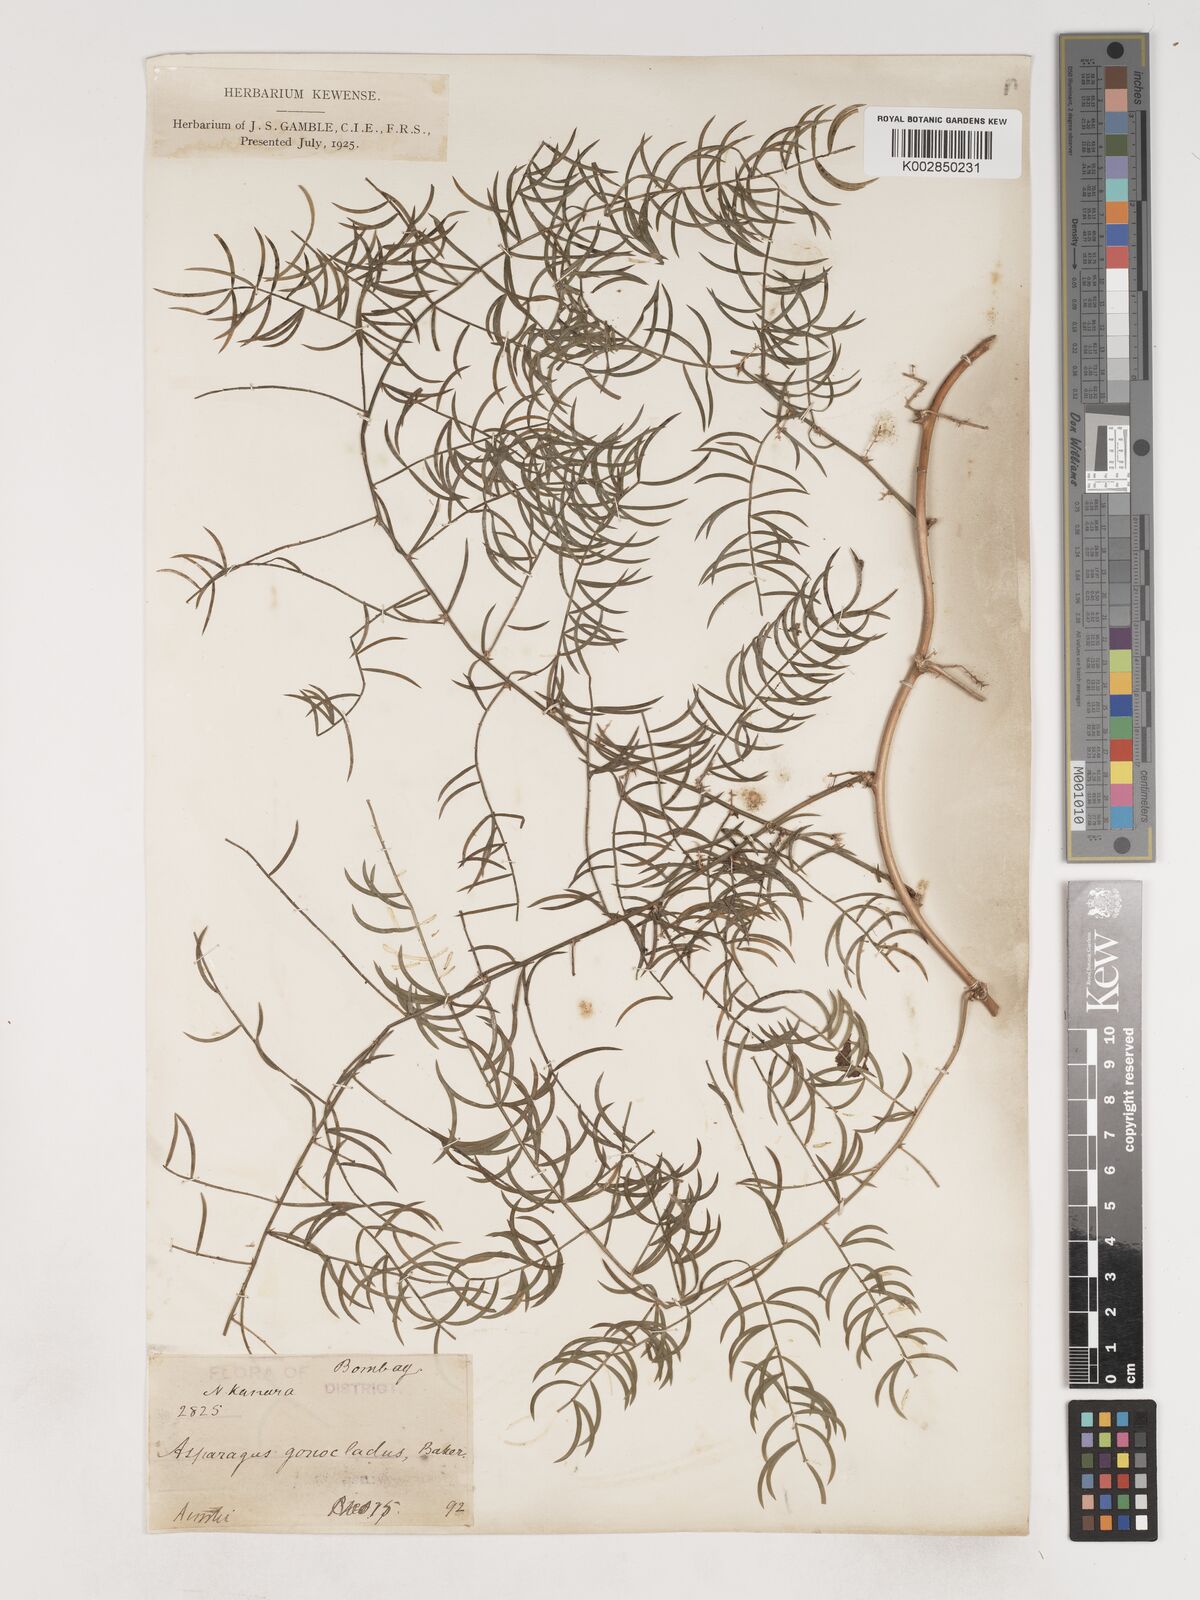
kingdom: Plantae
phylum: Tracheophyta
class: Liliopsida
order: Asparagales
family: Asparagaceae
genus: Asparagus
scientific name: Asparagus gonoclados
